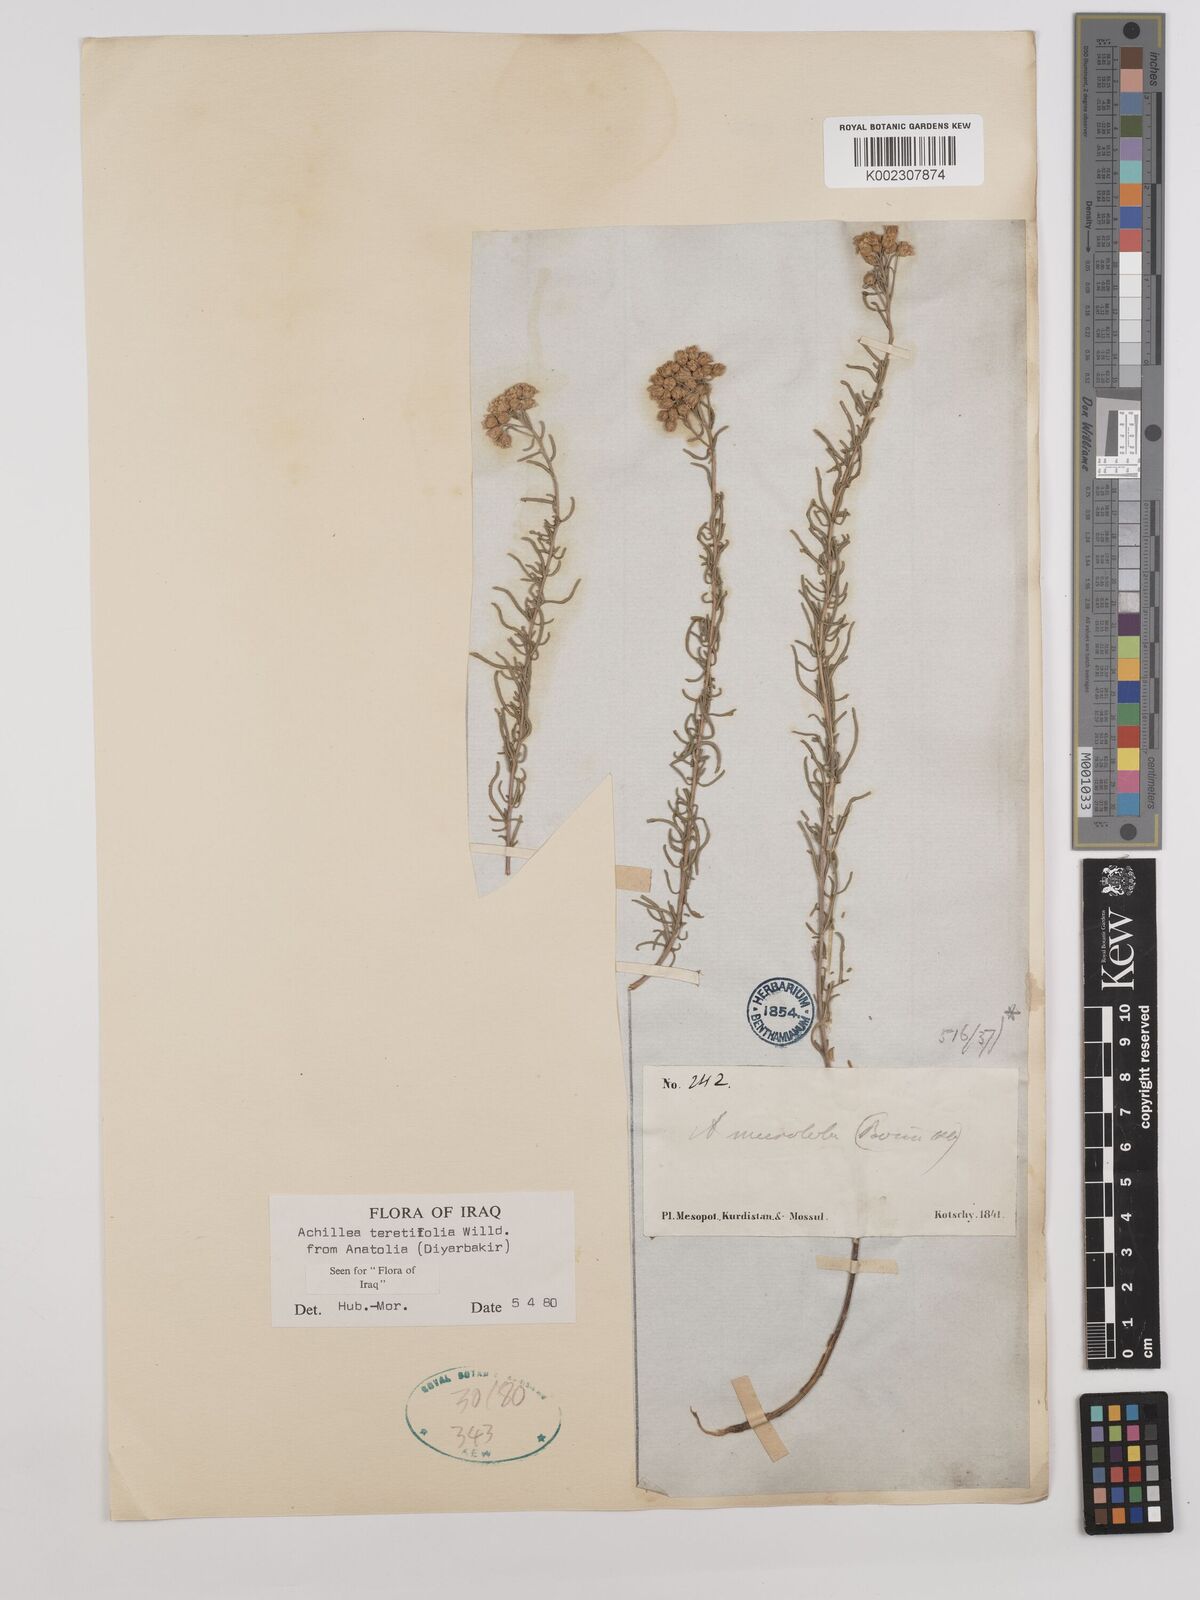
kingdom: Plantae
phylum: Tracheophyta
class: Magnoliopsida
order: Asterales
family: Asteraceae
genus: Achillea
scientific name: Achillea wilhelmsii
